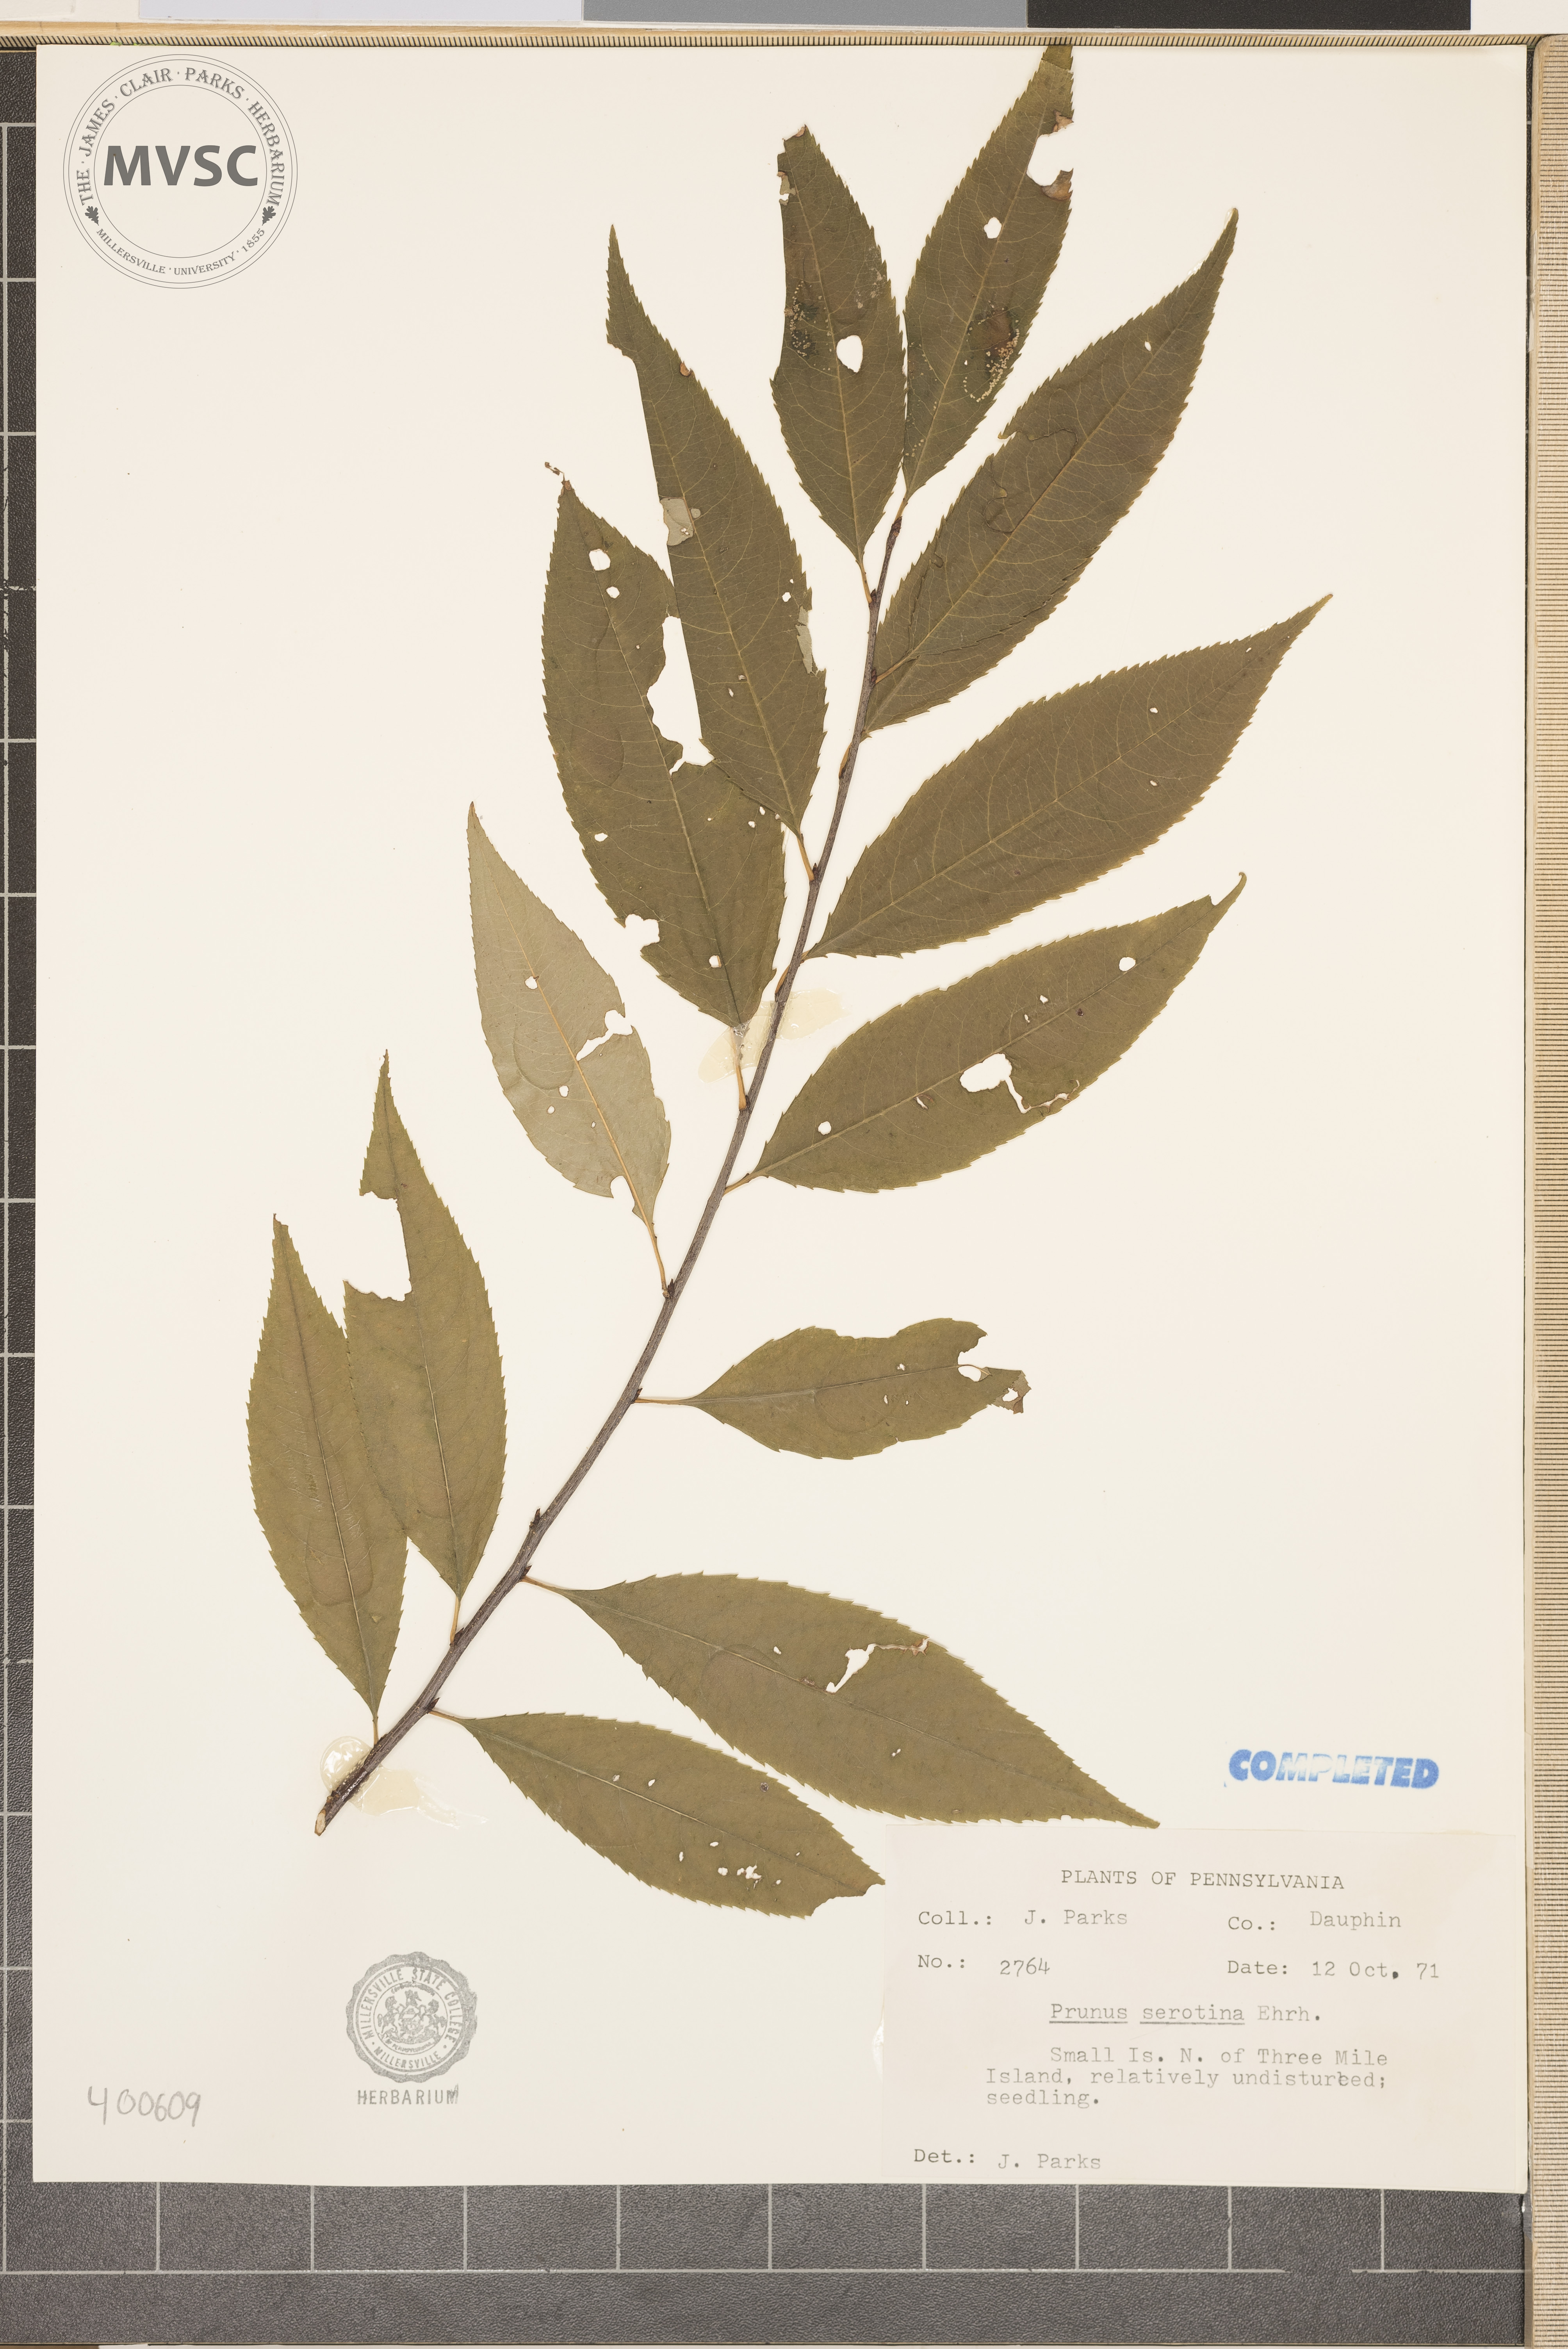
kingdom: Plantae
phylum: Tracheophyta
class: Magnoliopsida
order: Rosales
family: Rosaceae
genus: Prunus
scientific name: Prunus serotina
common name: wild black cherry
